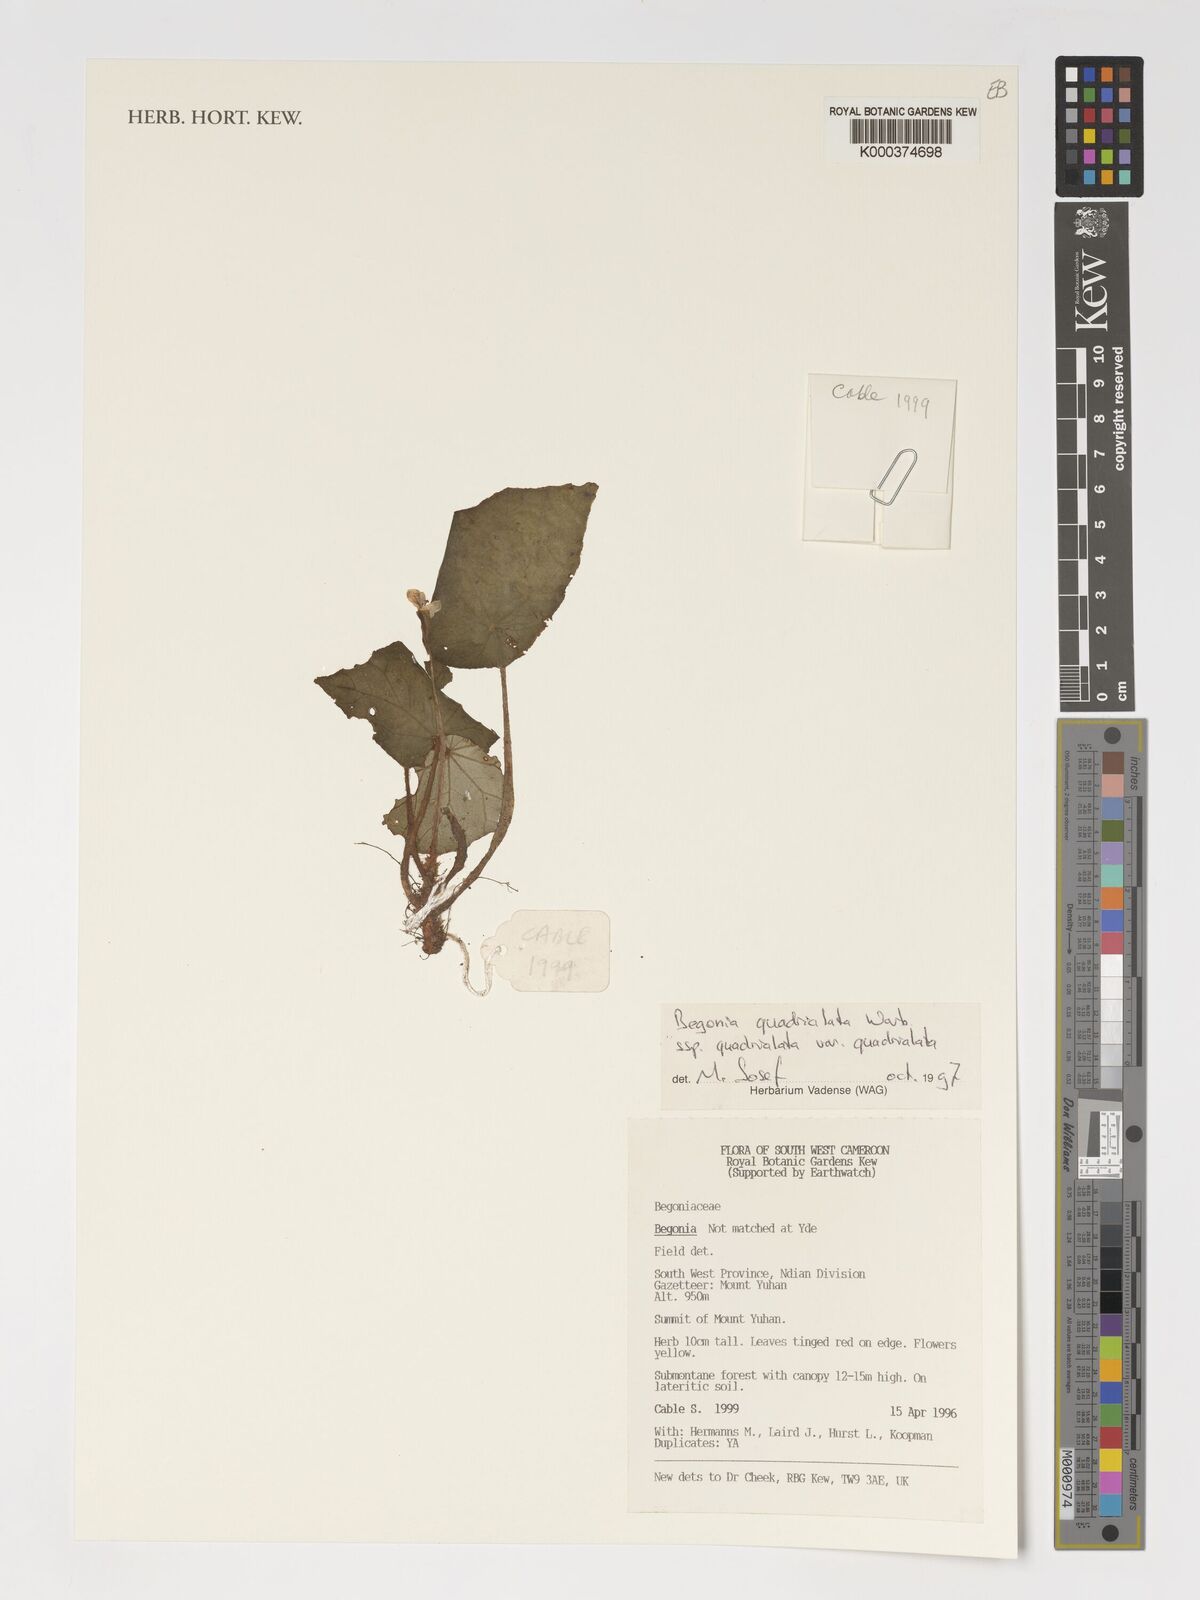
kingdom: Plantae
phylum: Tracheophyta
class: Magnoliopsida
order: Cucurbitales
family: Begoniaceae
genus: Begonia
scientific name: Begonia quadrialata
